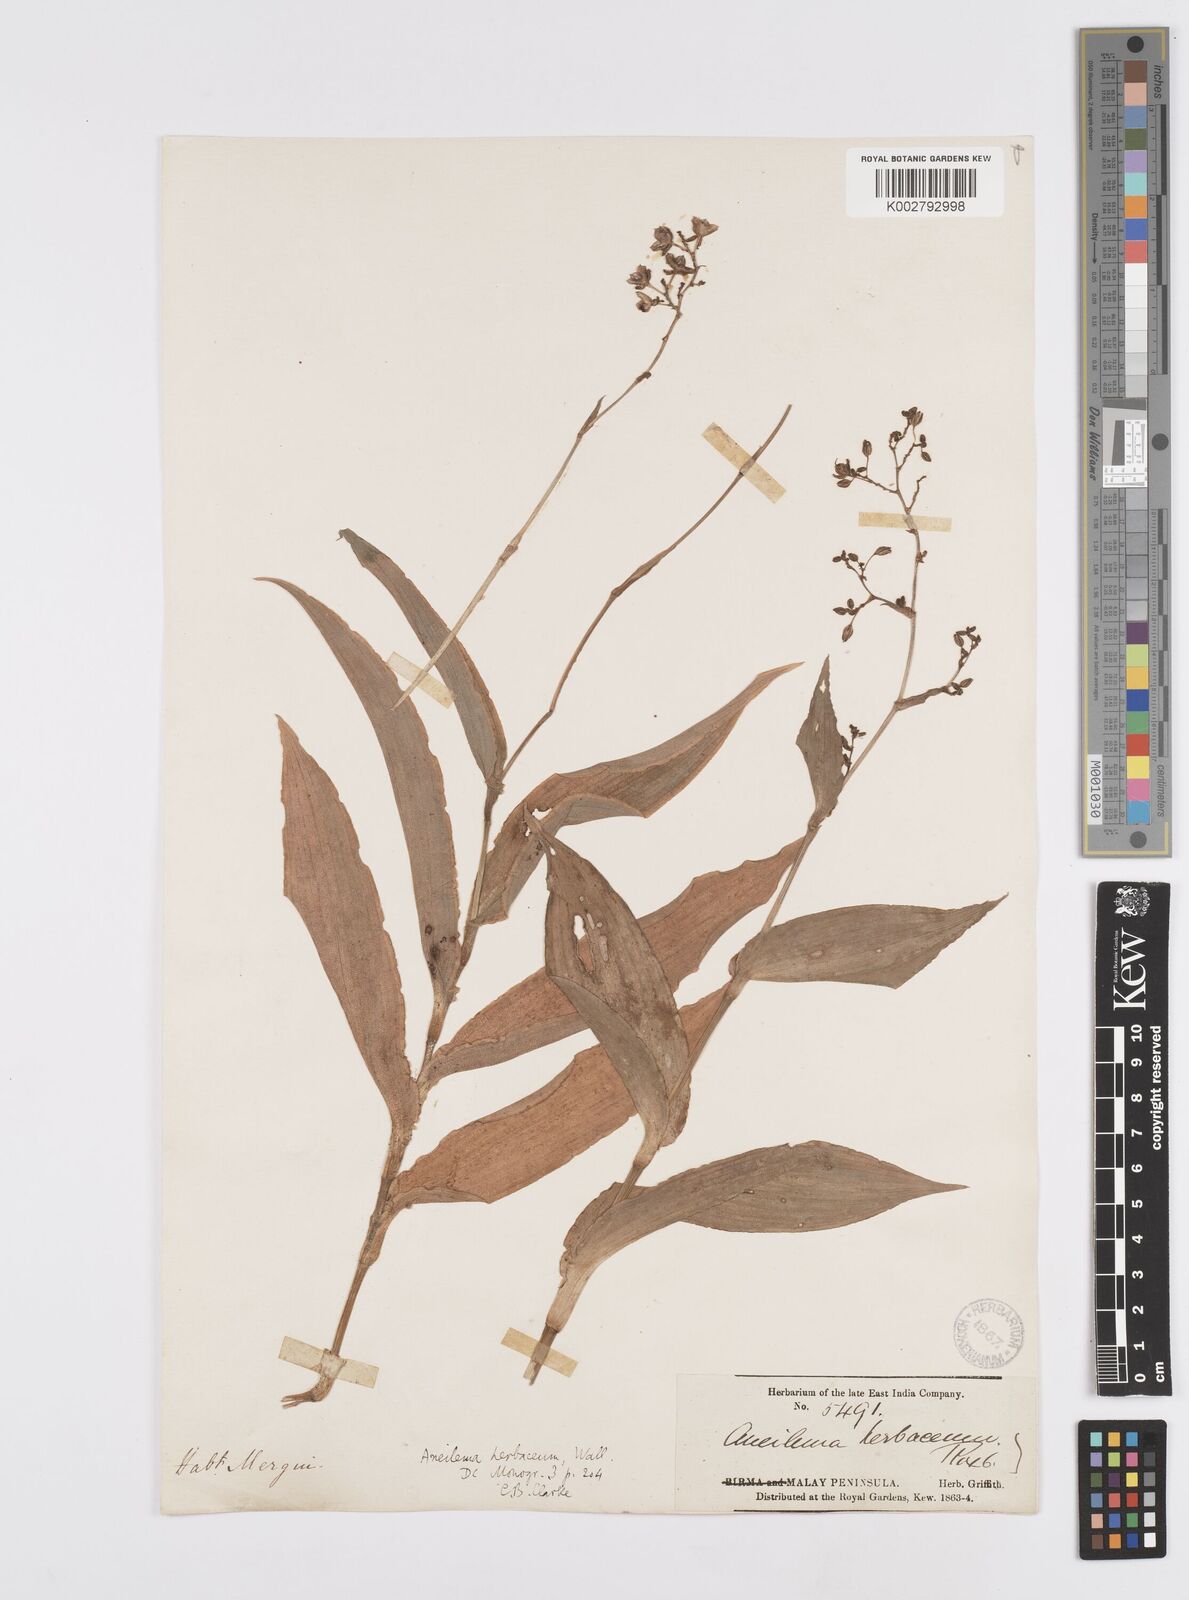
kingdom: Plantae
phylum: Tracheophyta
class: Liliopsida
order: Commelinales
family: Commelinaceae
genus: Murdannia
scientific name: Murdannia
